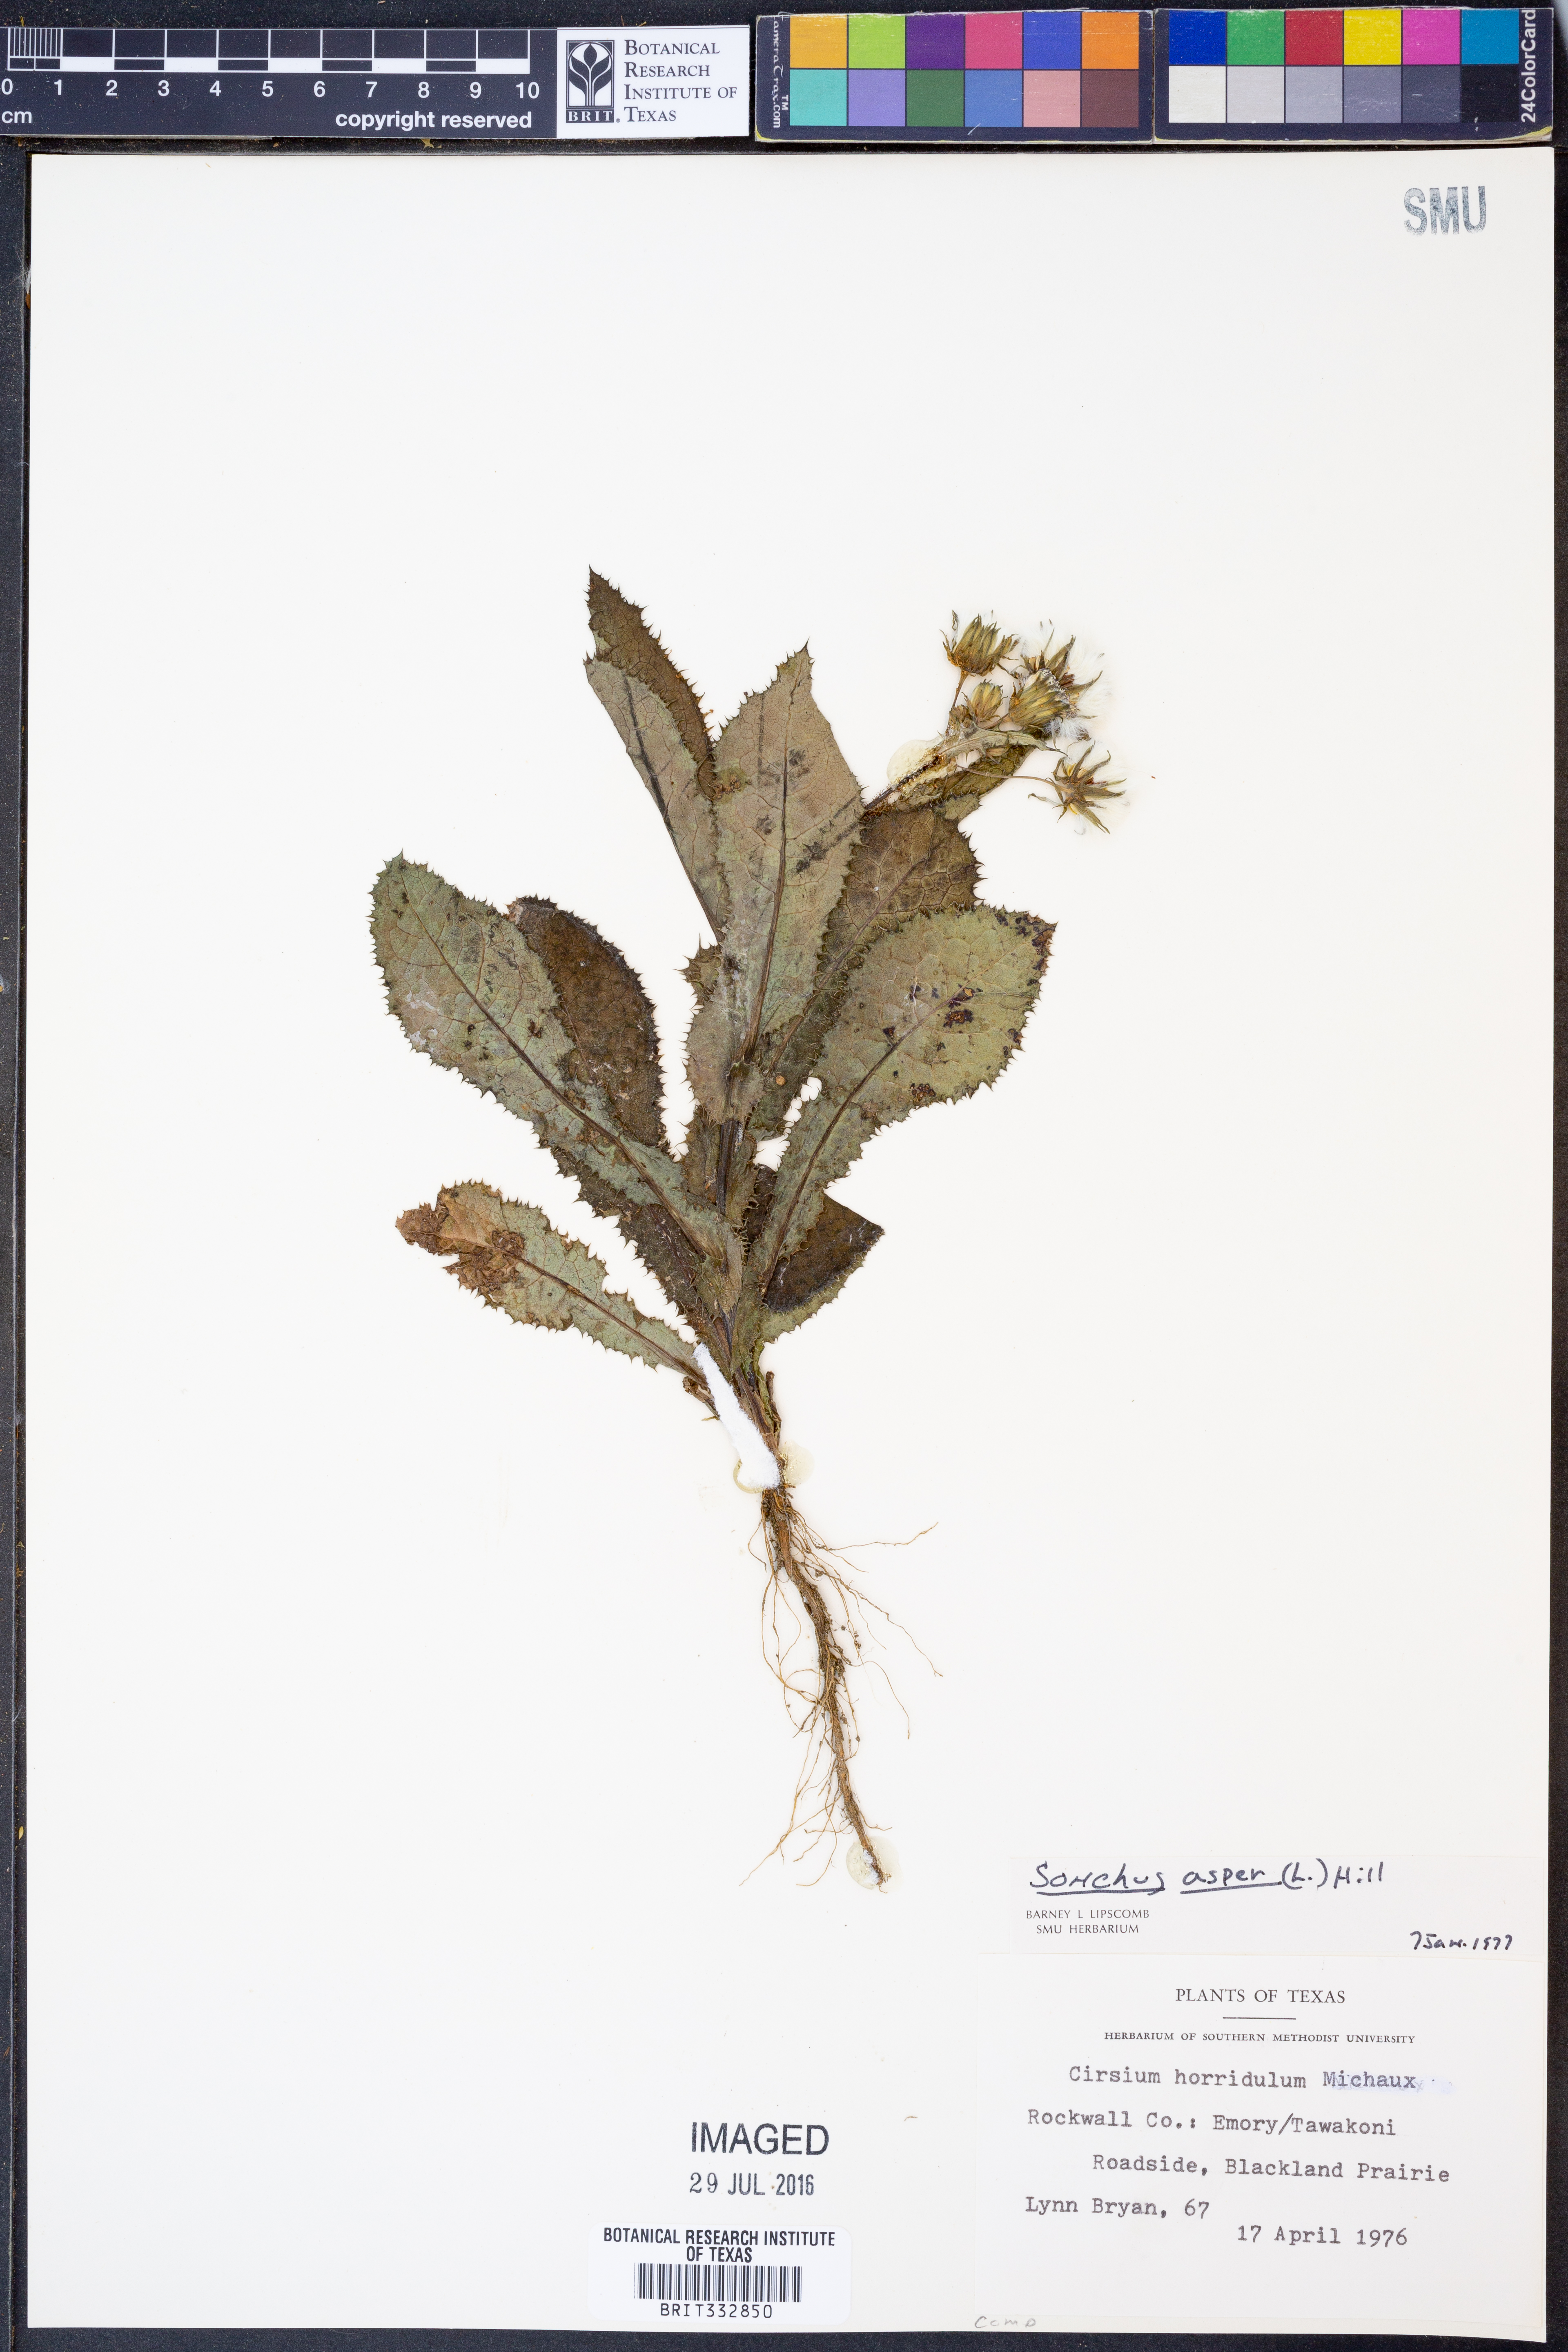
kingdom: Plantae
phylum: Tracheophyta
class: Magnoliopsida
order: Asterales
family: Asteraceae
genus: Sonchus
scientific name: Sonchus asper
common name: Prickly sow-thistle
